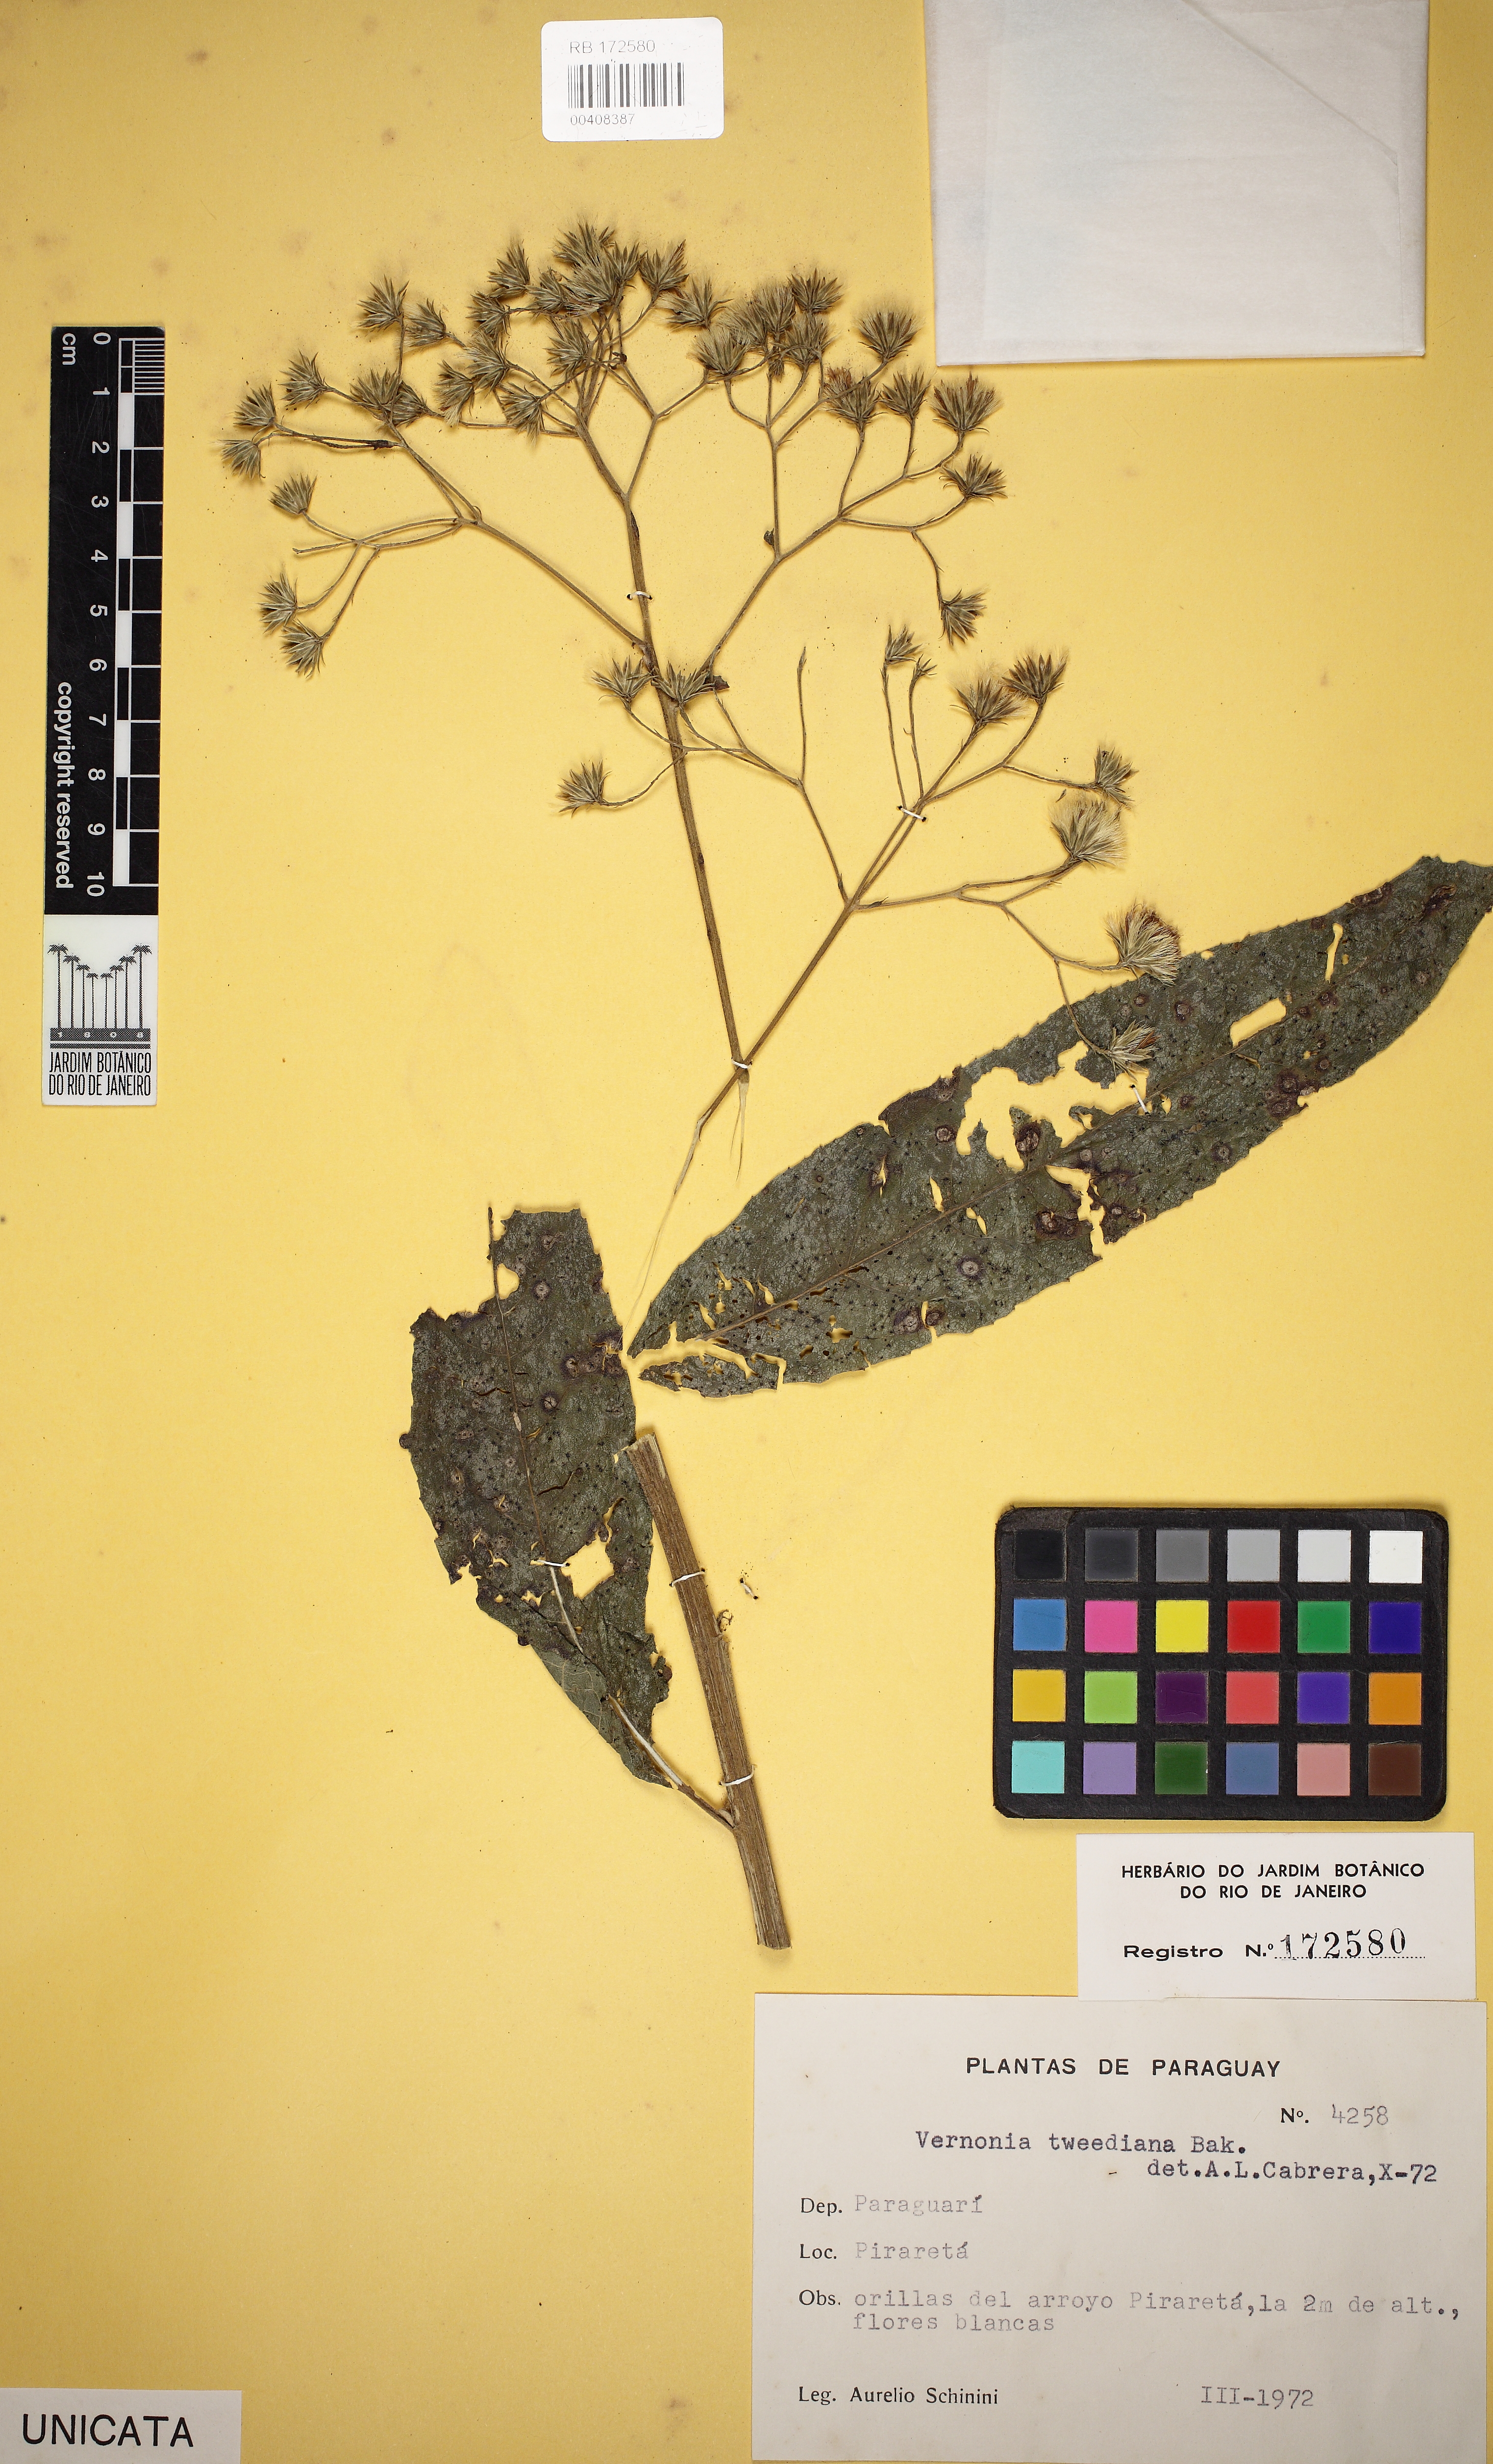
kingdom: Plantae
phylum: Tracheophyta
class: Magnoliopsida
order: Asterales
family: Asteraceae
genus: Vernonanthura
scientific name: Vernonanthura tweediana
